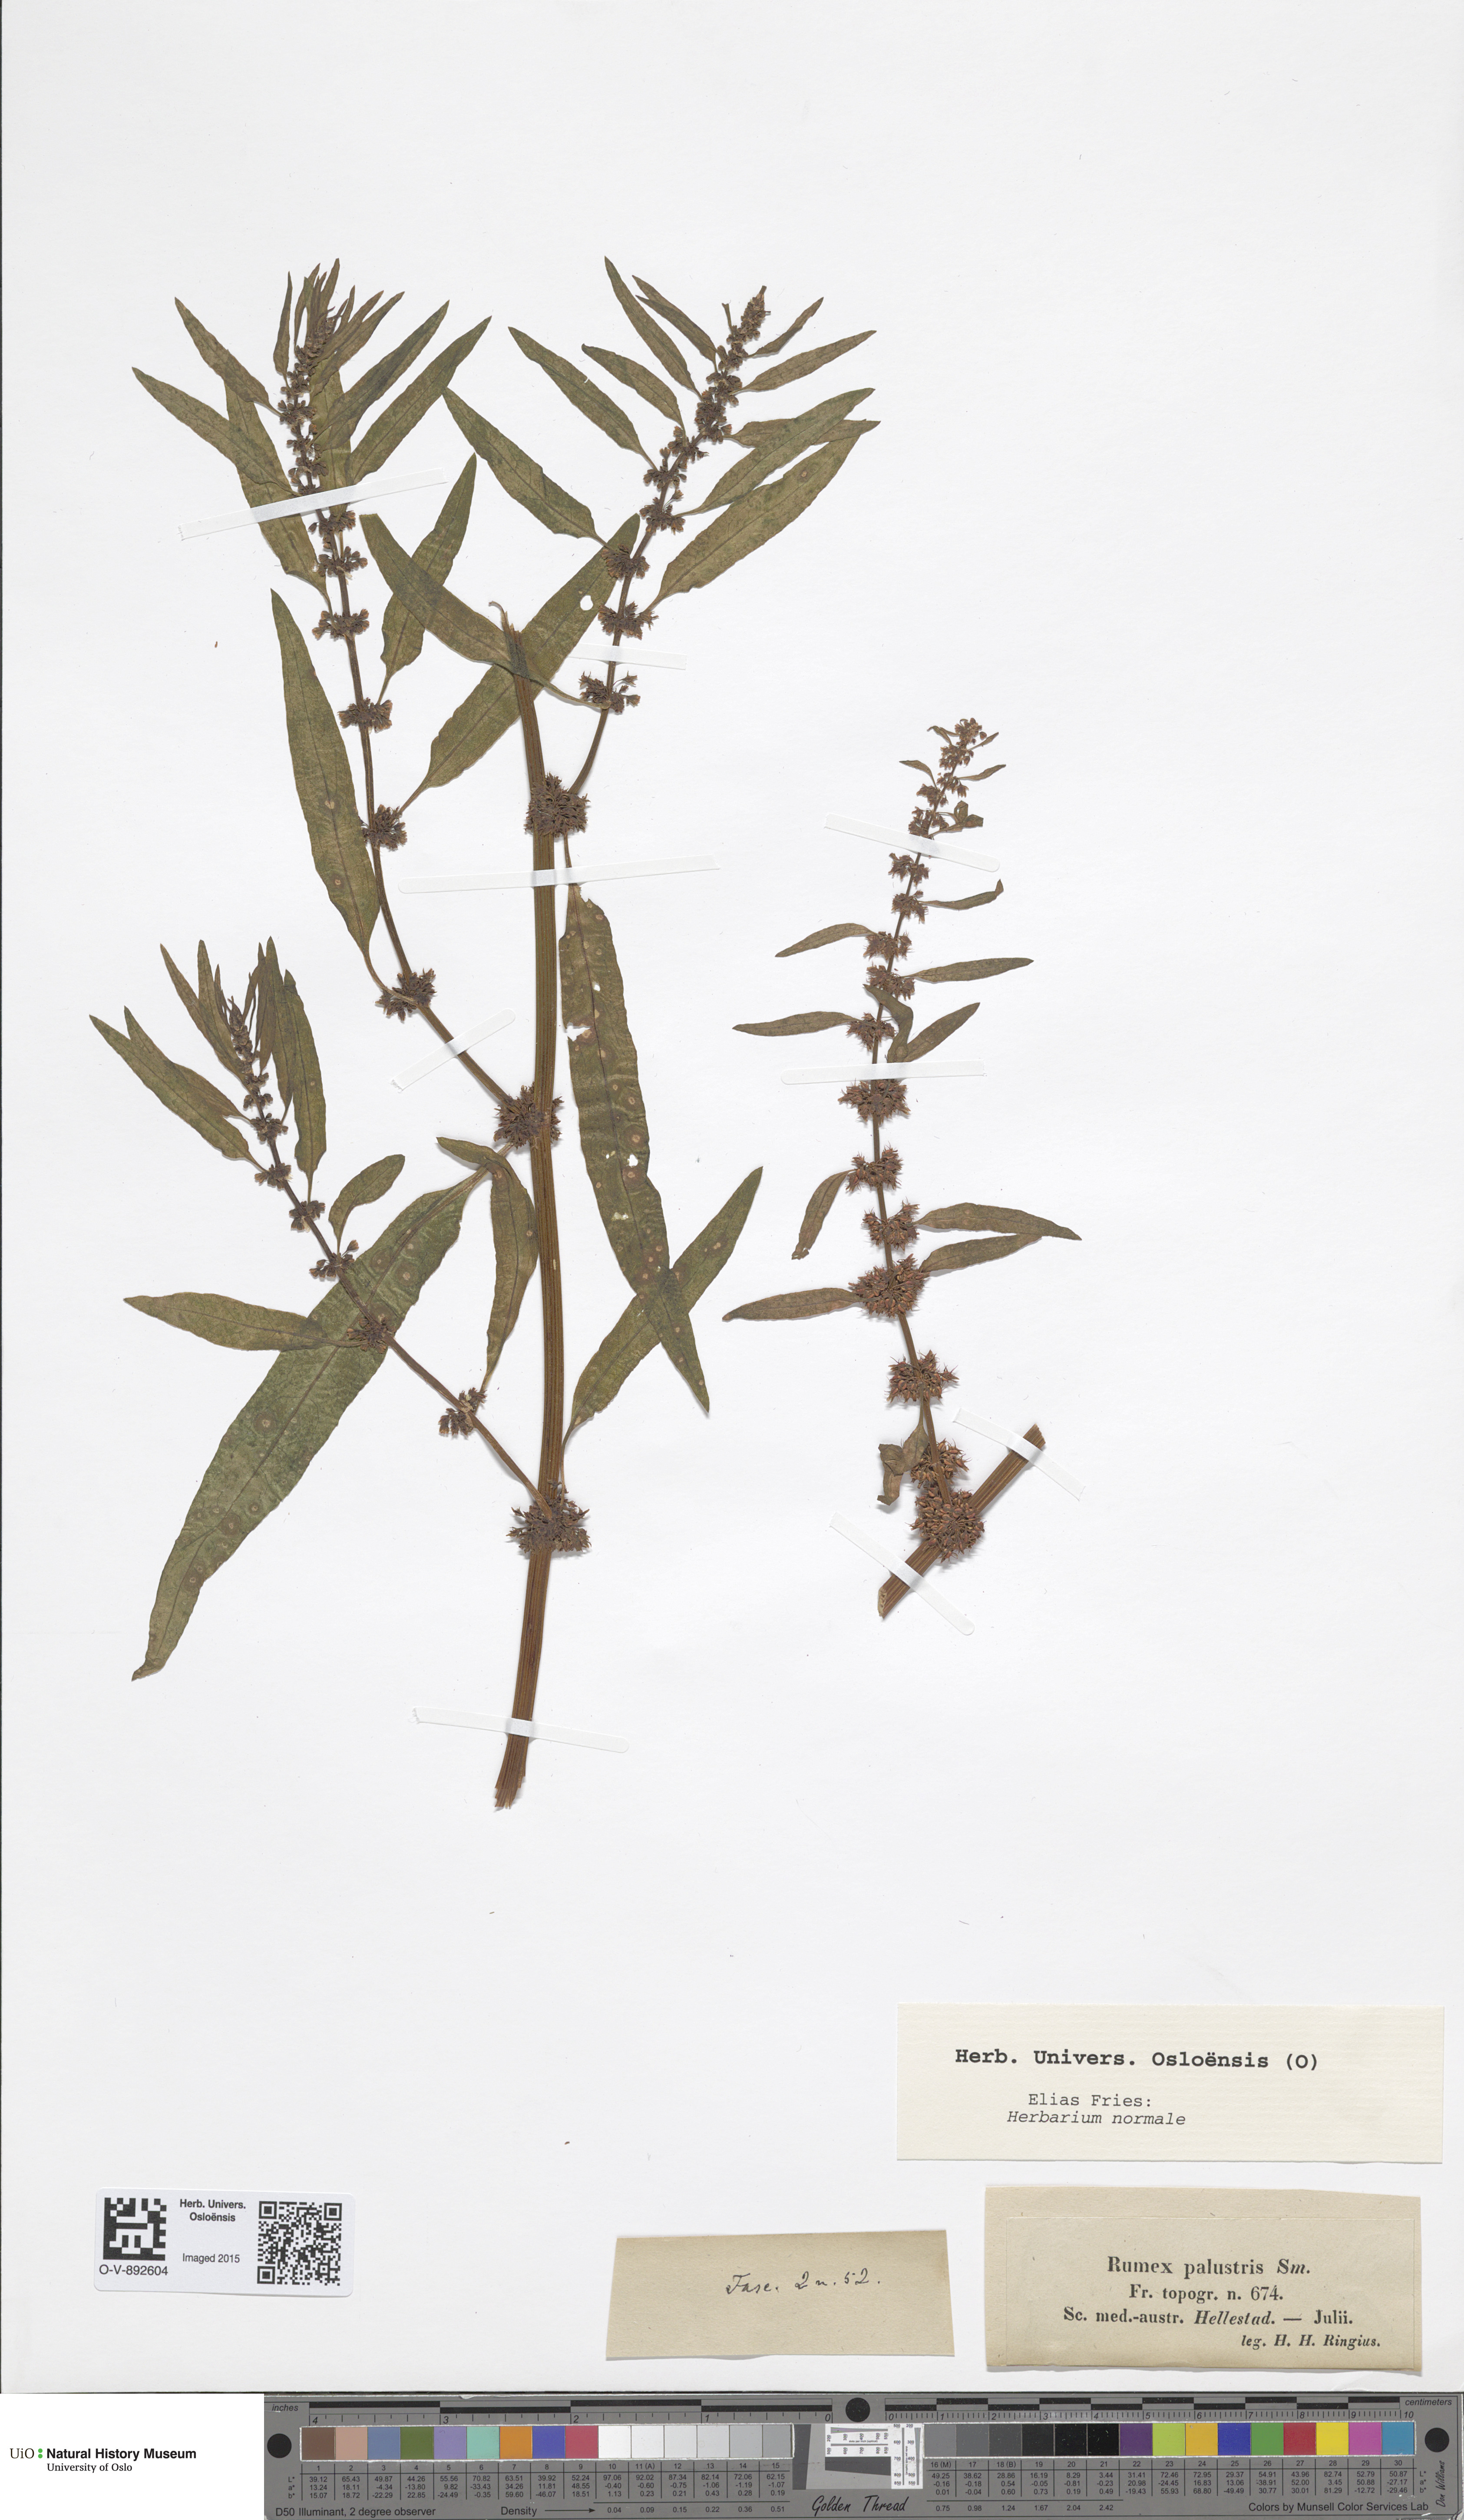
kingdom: Plantae
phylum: Tracheophyta
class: Magnoliopsida
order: Caryophyllales
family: Polygonaceae
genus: Rumex
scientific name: Rumex palustris
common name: Marsh dock
